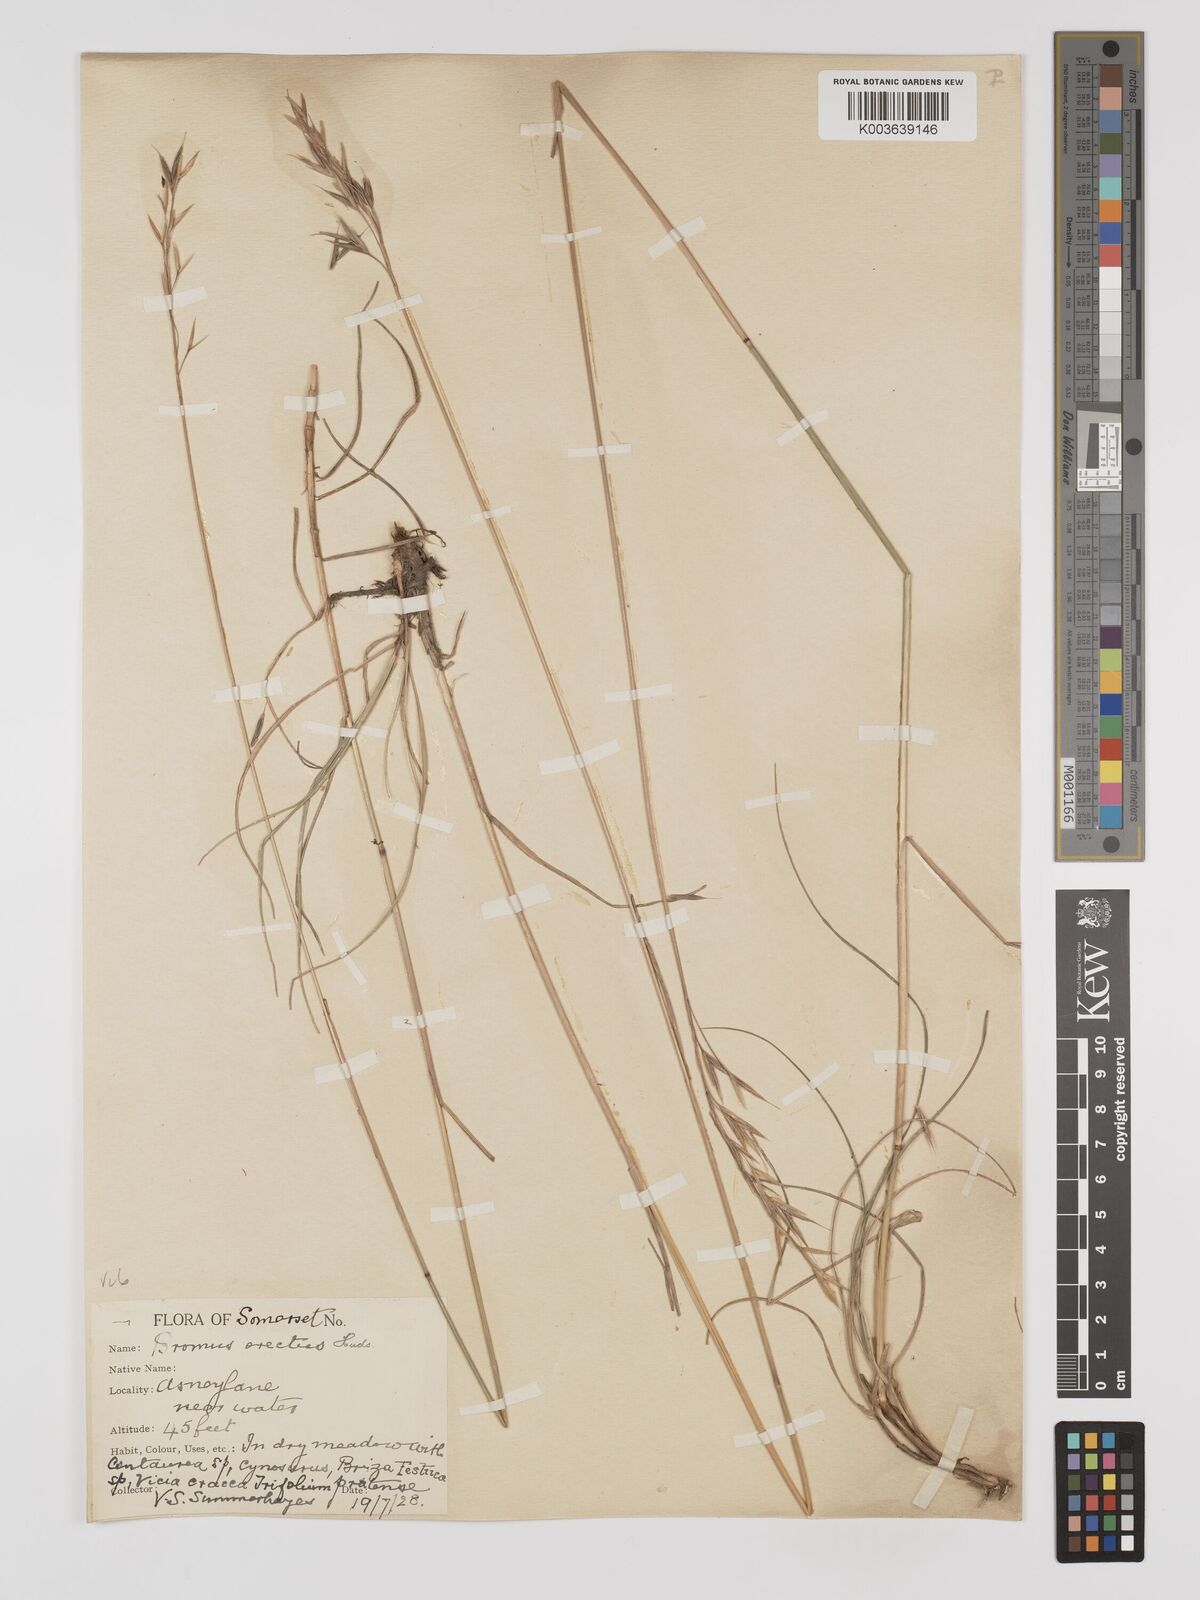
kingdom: Plantae
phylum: Tracheophyta
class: Liliopsida
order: Poales
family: Poaceae
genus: Bromus
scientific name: Bromus erectus
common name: Erect brome
